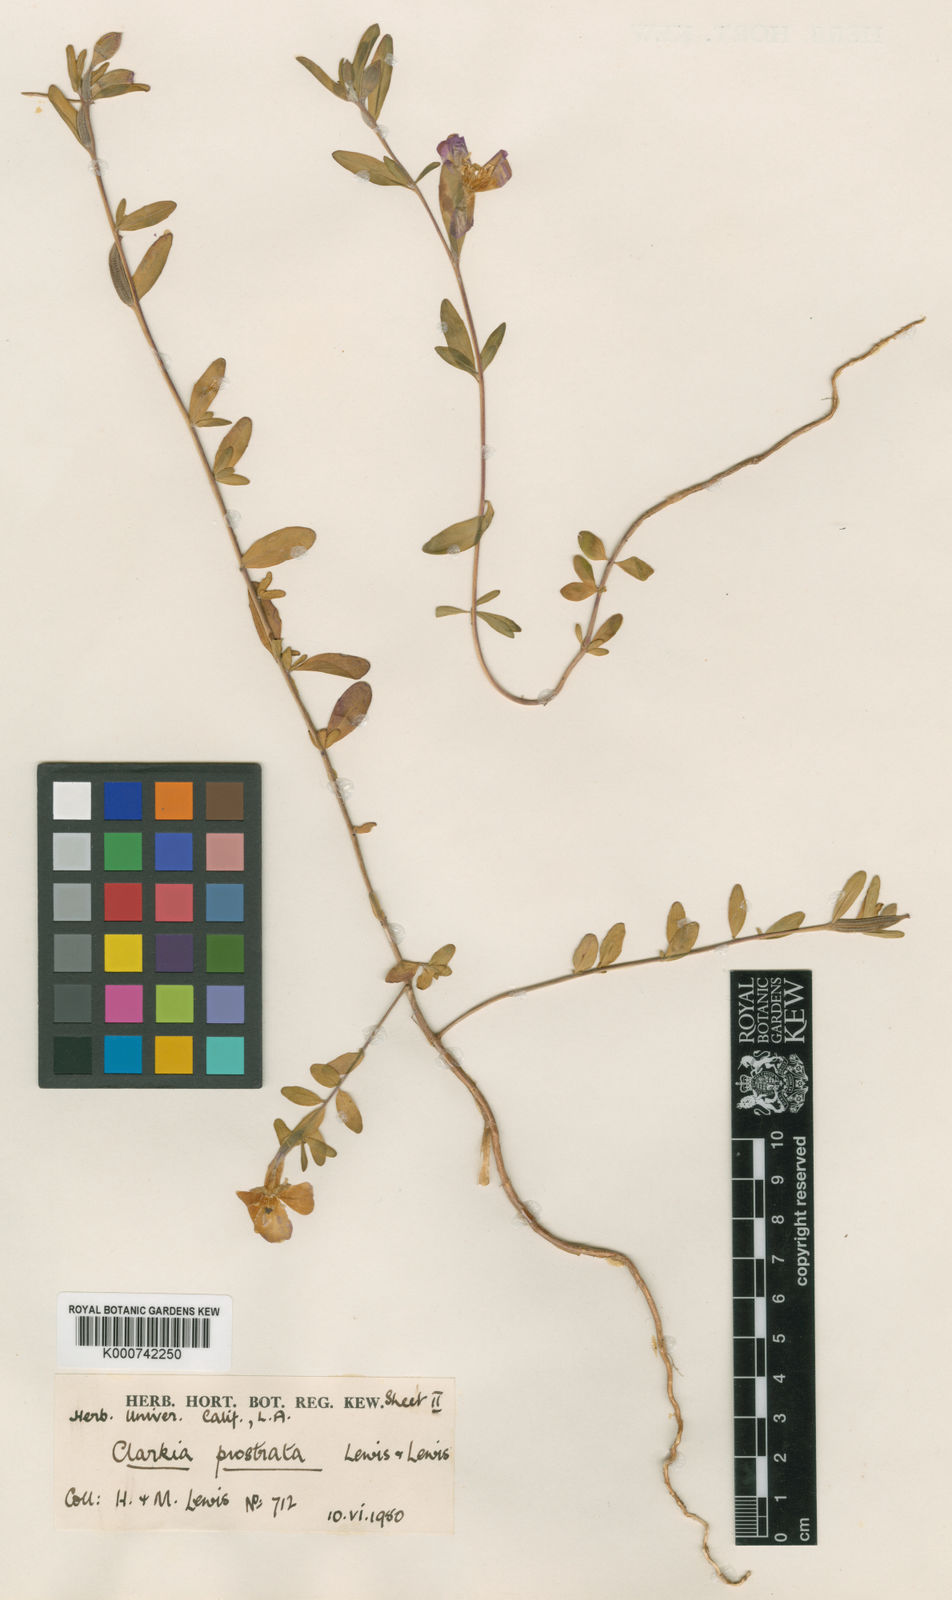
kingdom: Plantae
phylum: Tracheophyta
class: Magnoliopsida
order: Myrtales
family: Onagraceae
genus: Clarkia
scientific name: Clarkia prostrata
